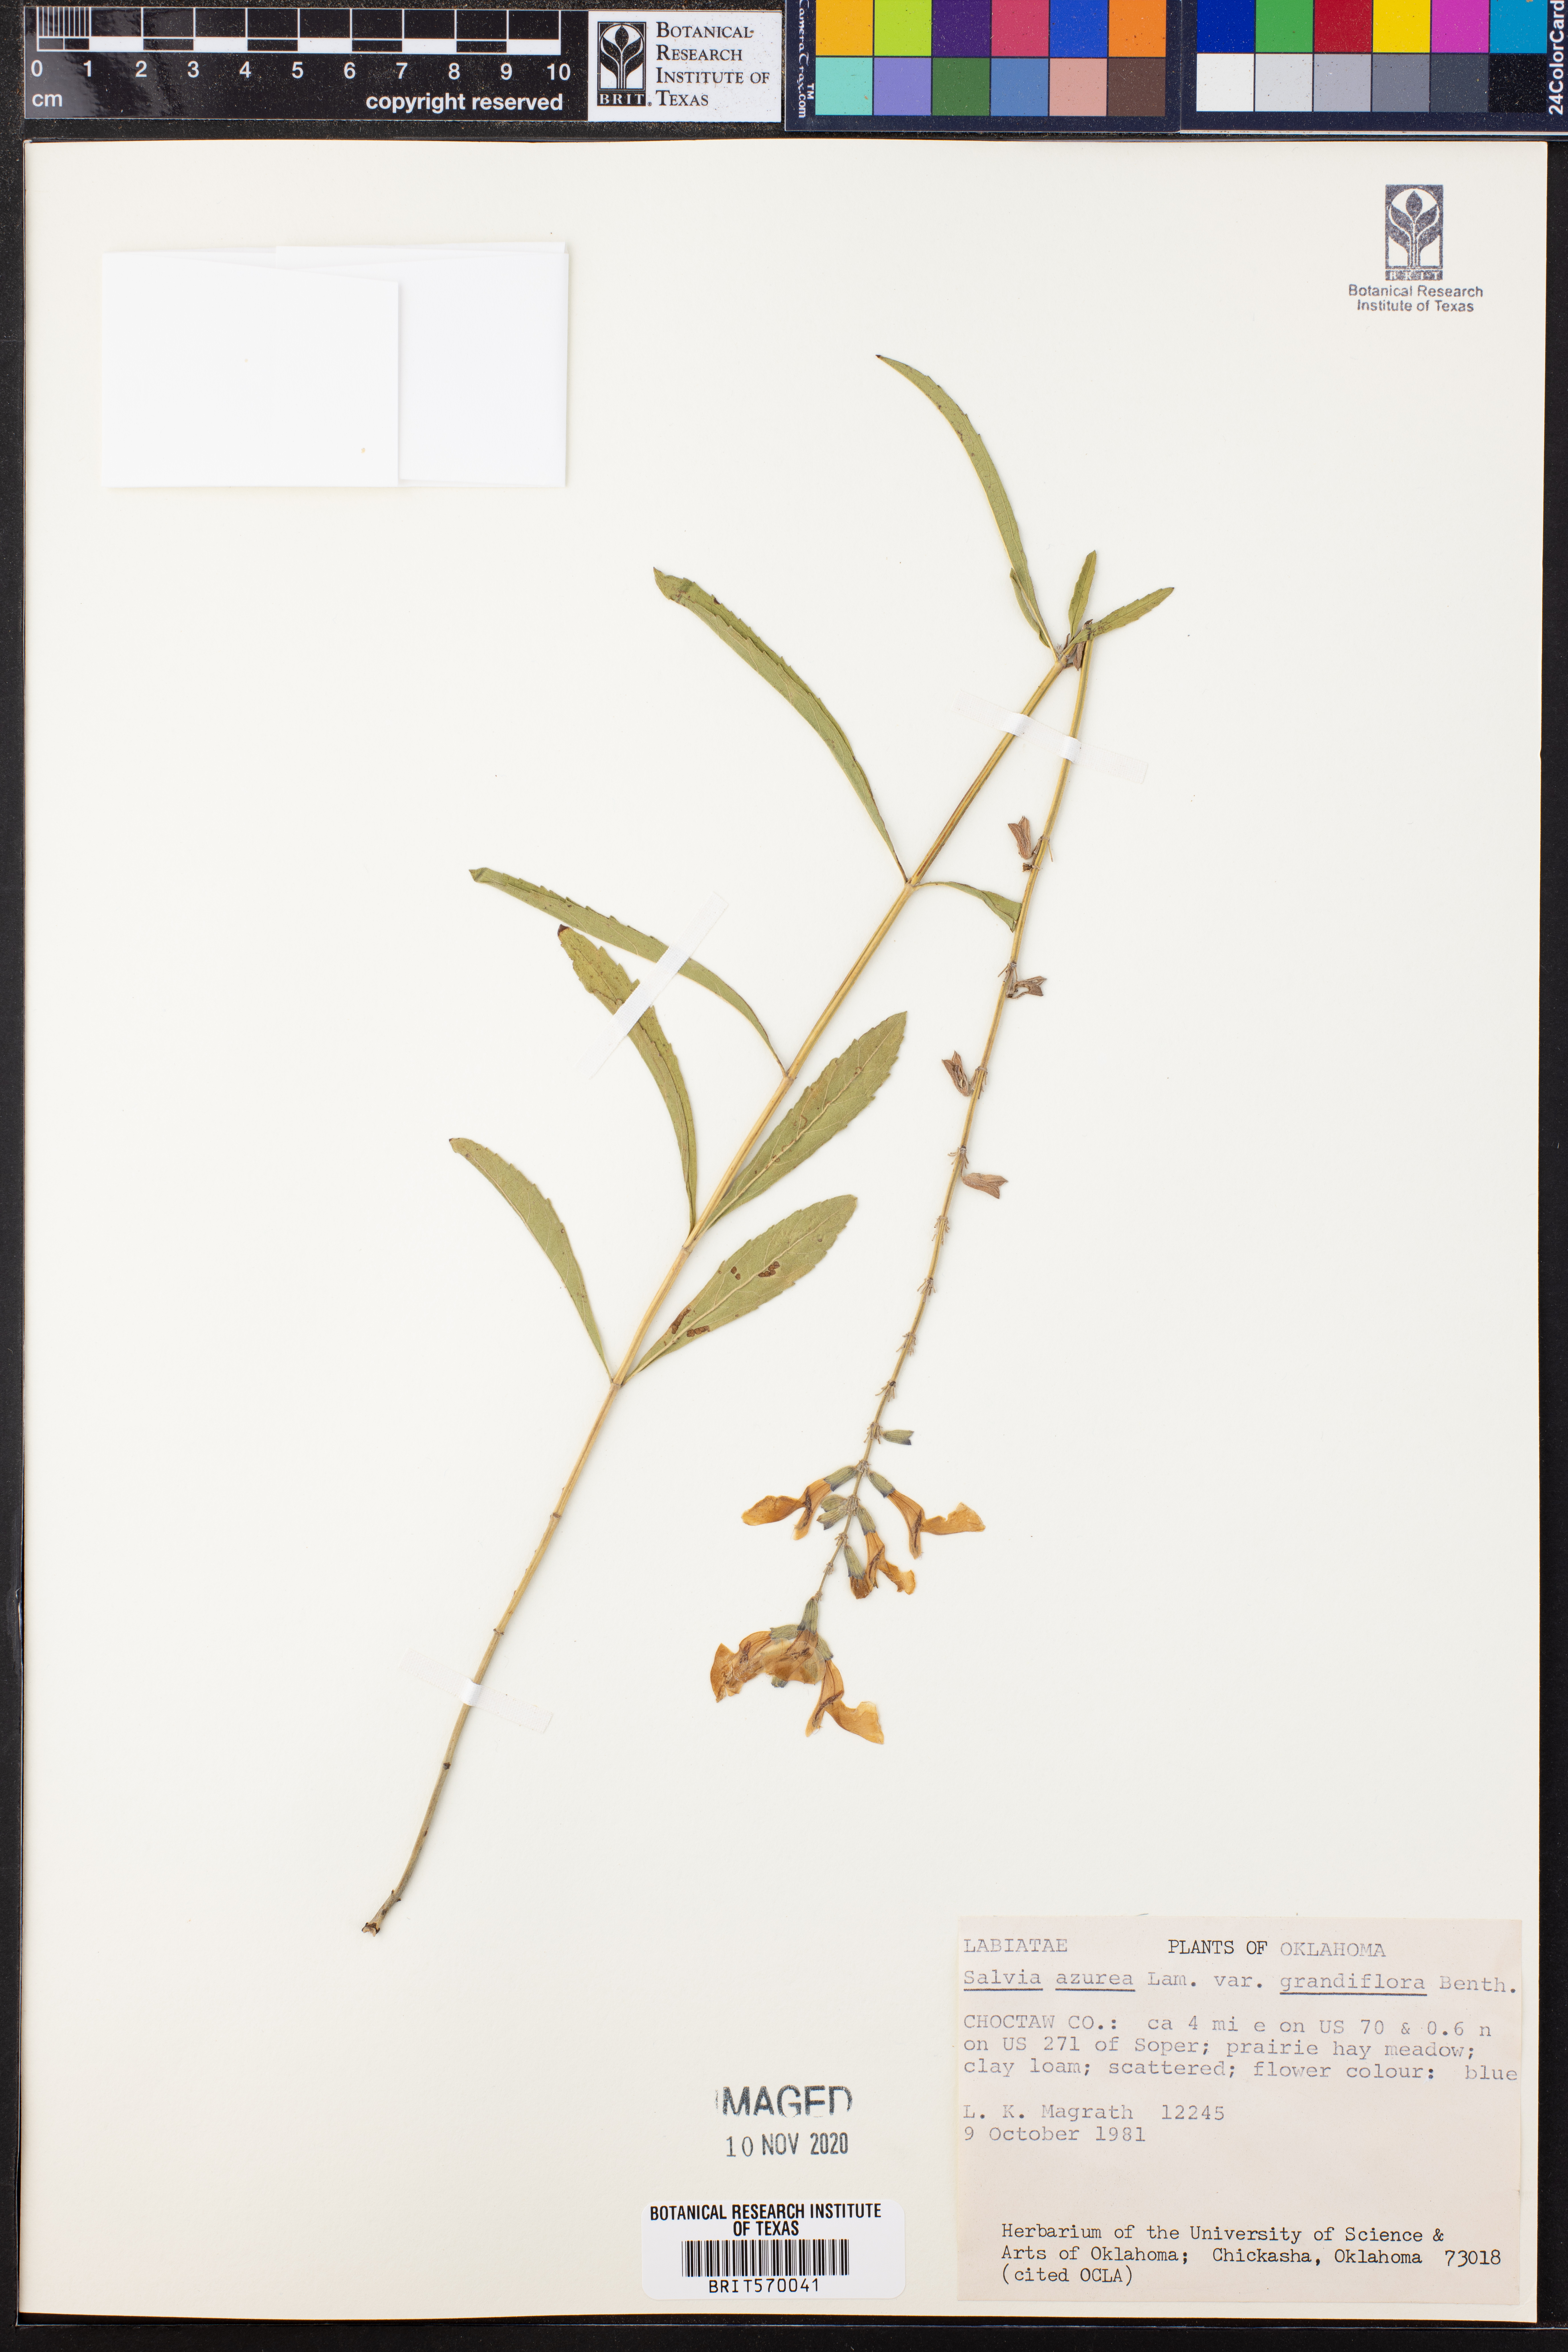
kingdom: Plantae
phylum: Tracheophyta
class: Magnoliopsida
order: Lamiales
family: Lamiaceae
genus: Salvia
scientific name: Salvia azurea
